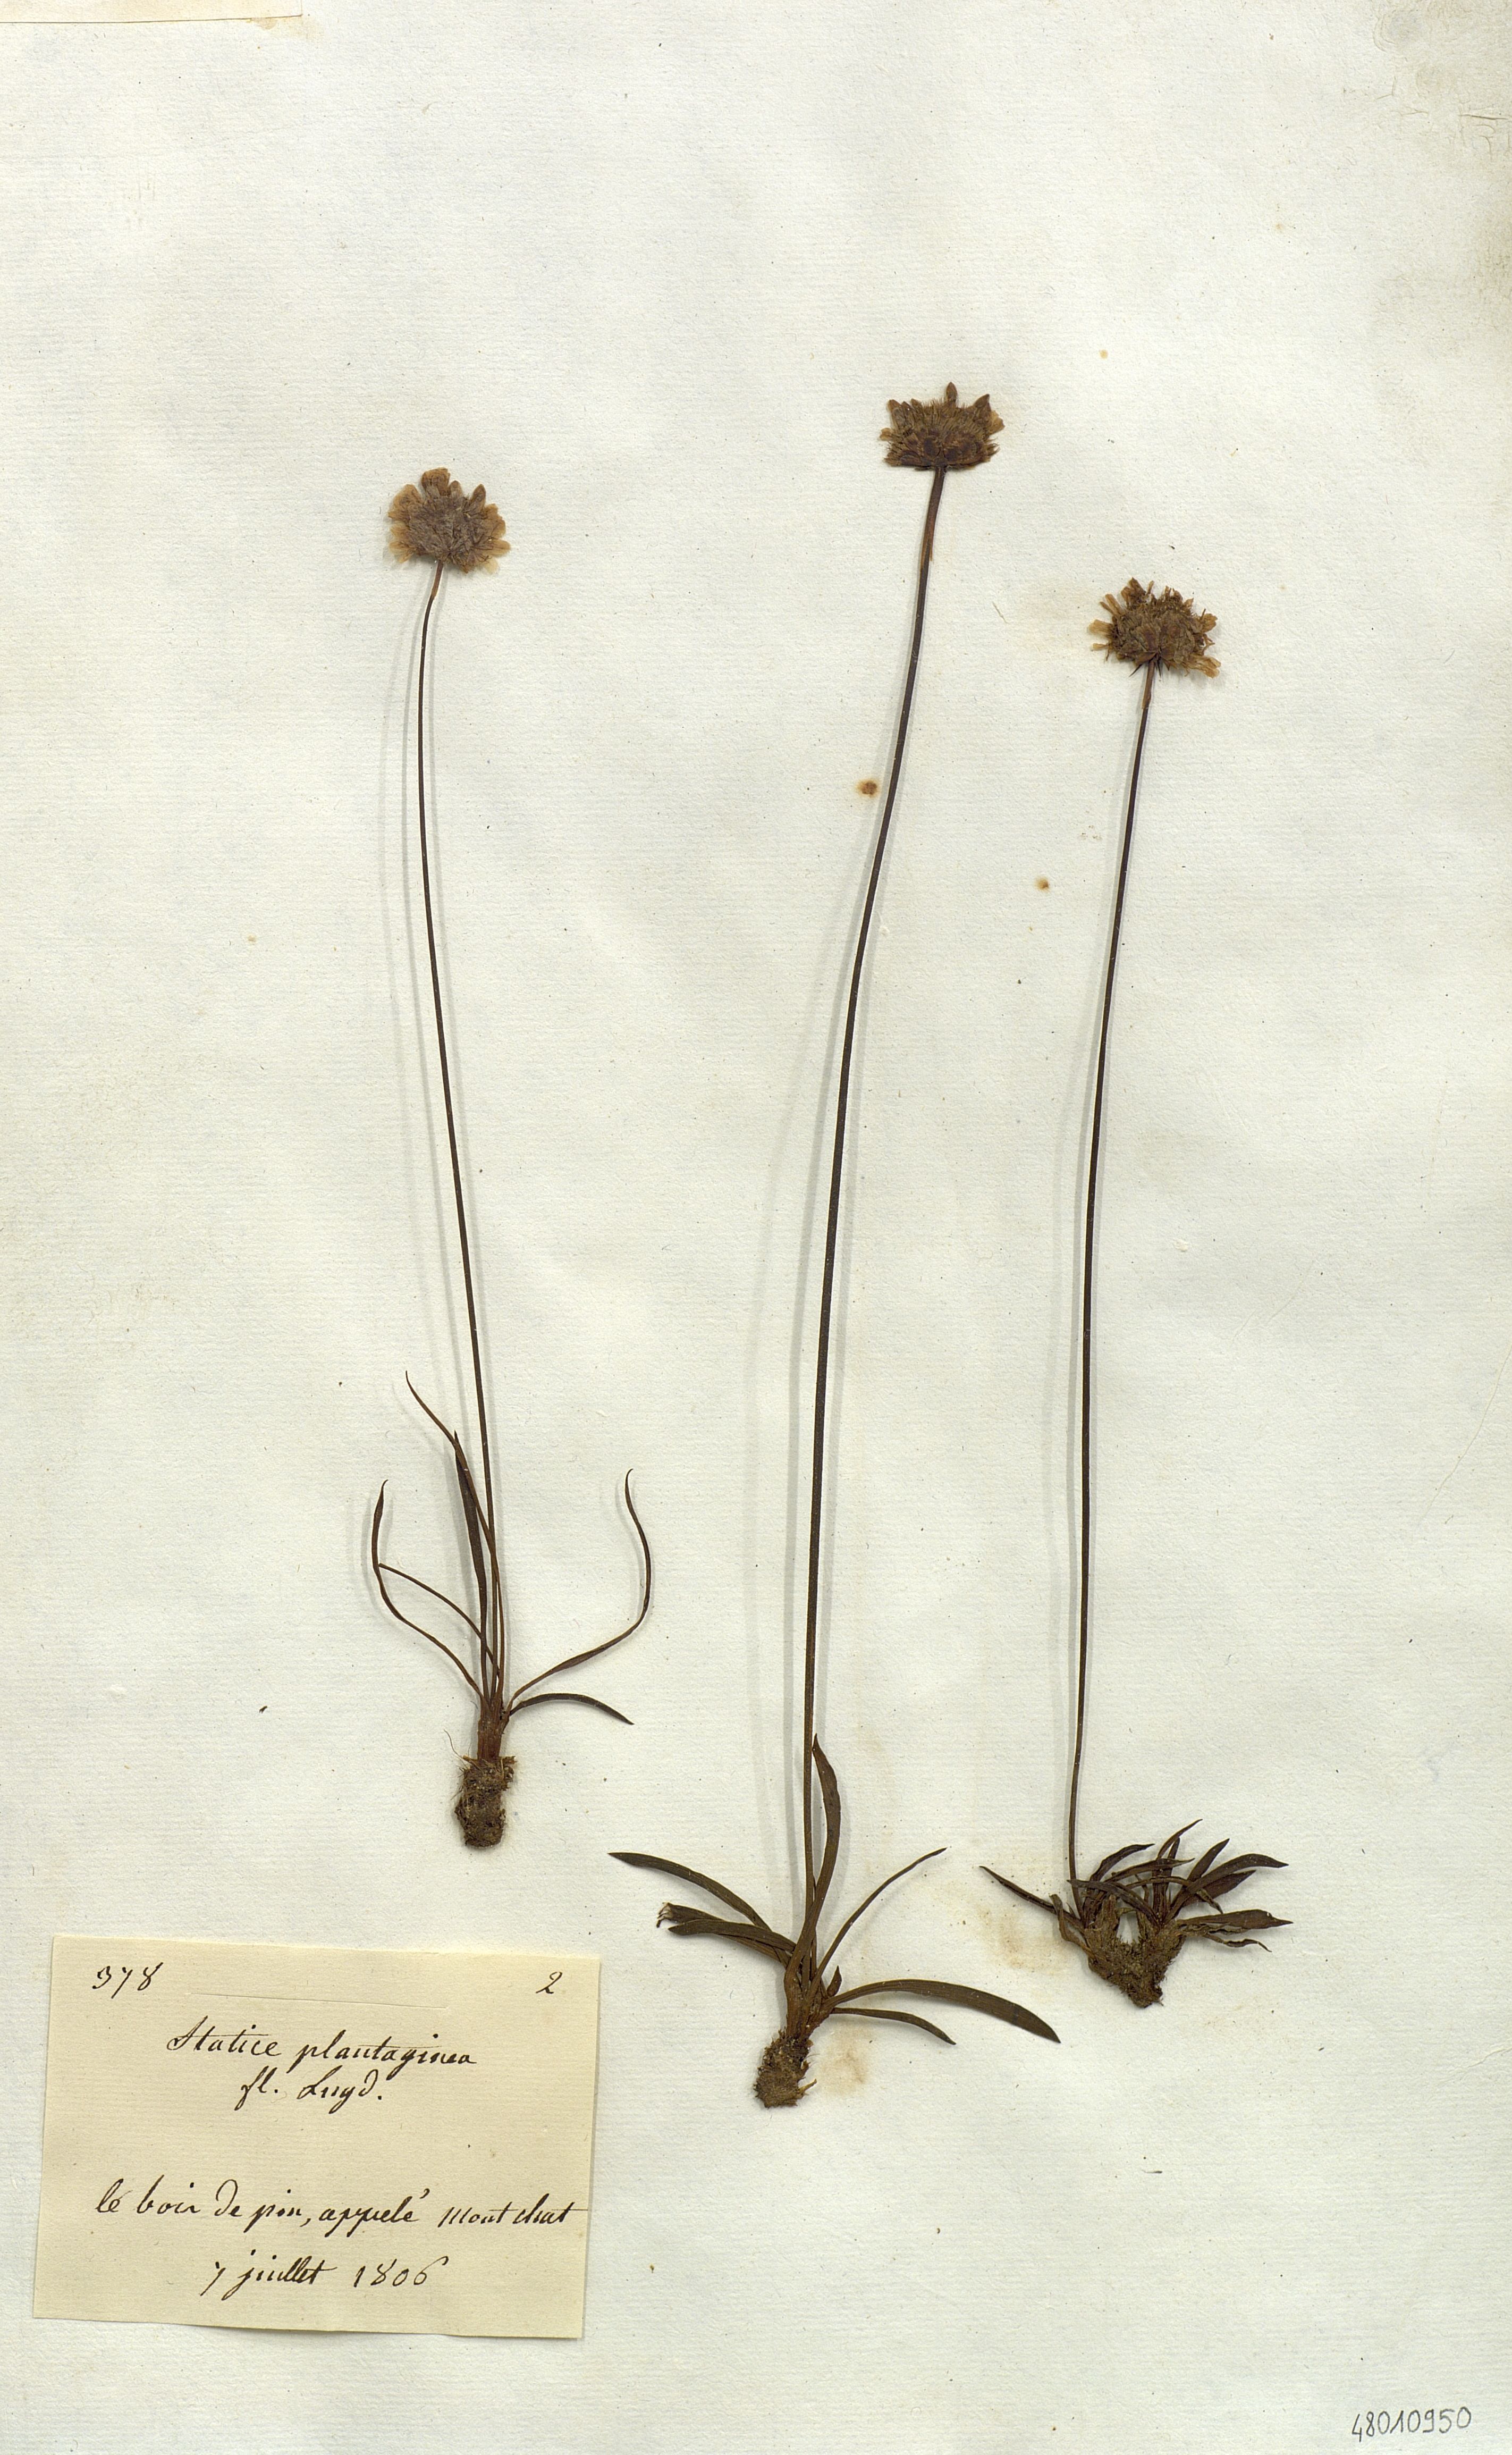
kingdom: Plantae
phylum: Tracheophyta
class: Magnoliopsida
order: Caryophyllales
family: Plumbaginaceae
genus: Armeria
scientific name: Armeria
